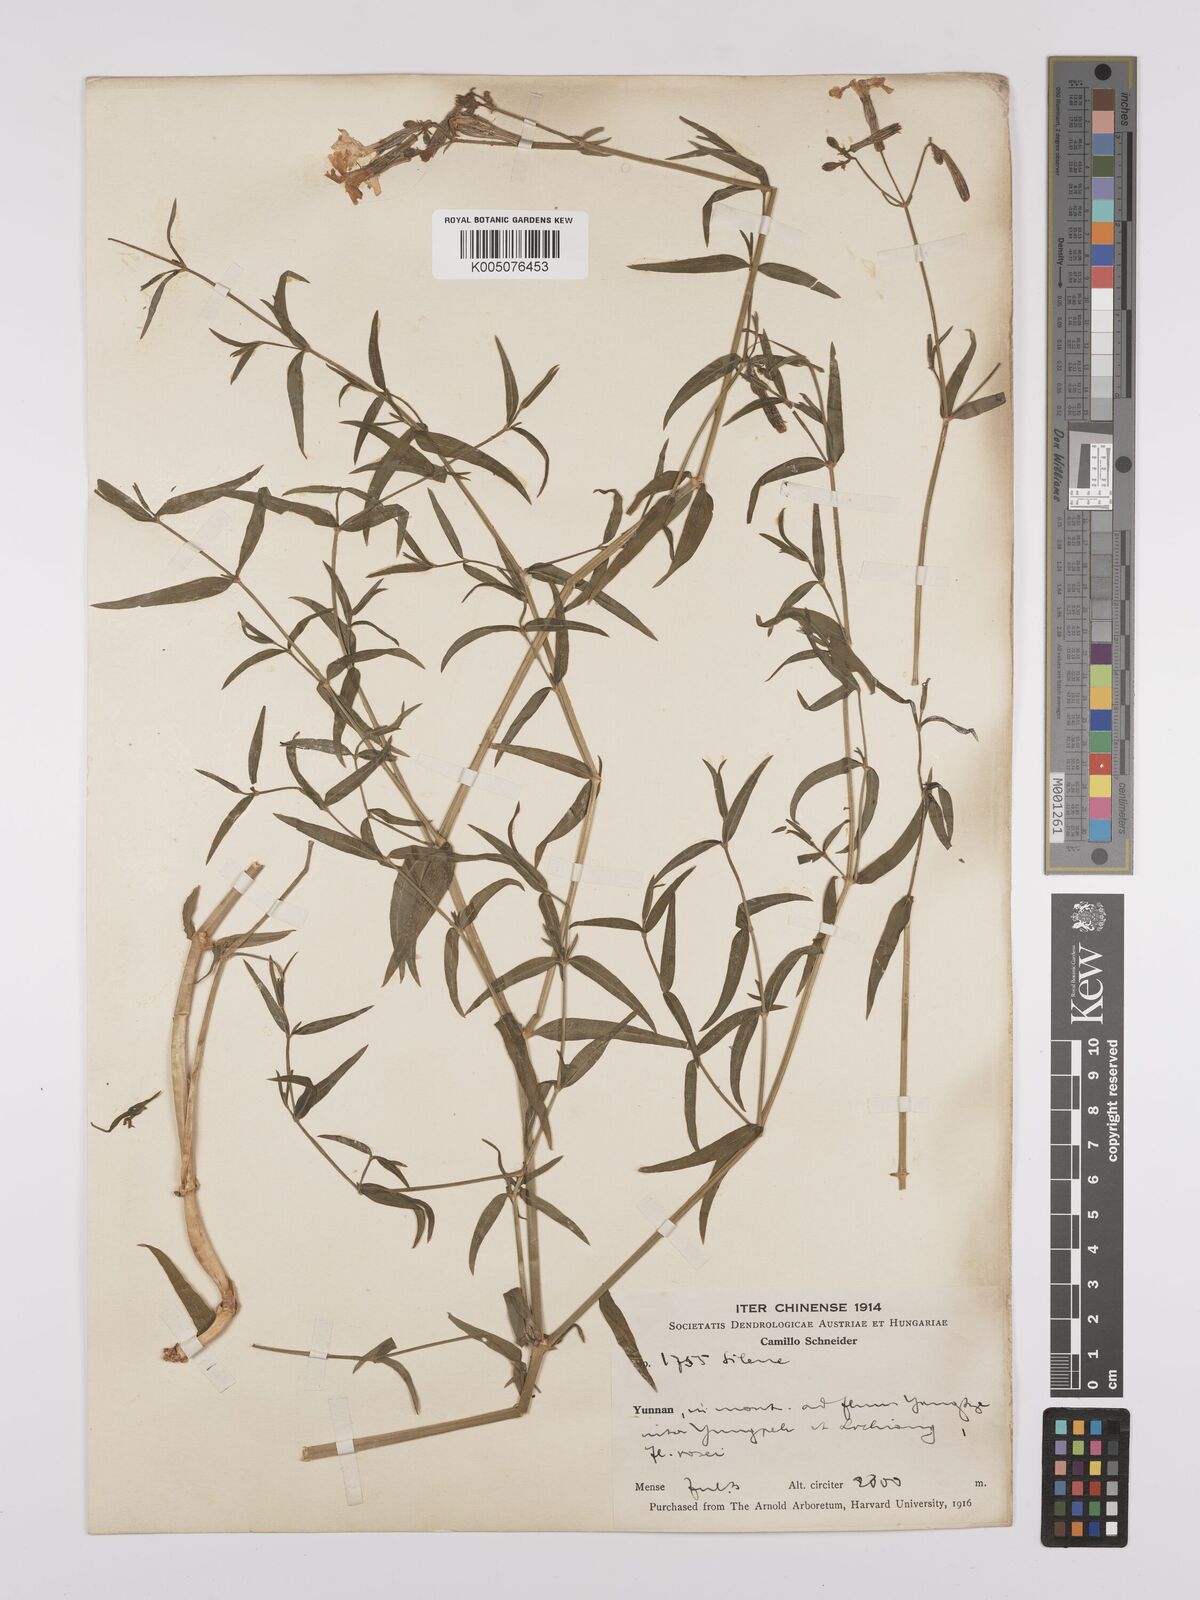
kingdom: Plantae
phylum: Tracheophyta
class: Magnoliopsida
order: Caryophyllales
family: Caryophyllaceae
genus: Silene
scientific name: Silene
